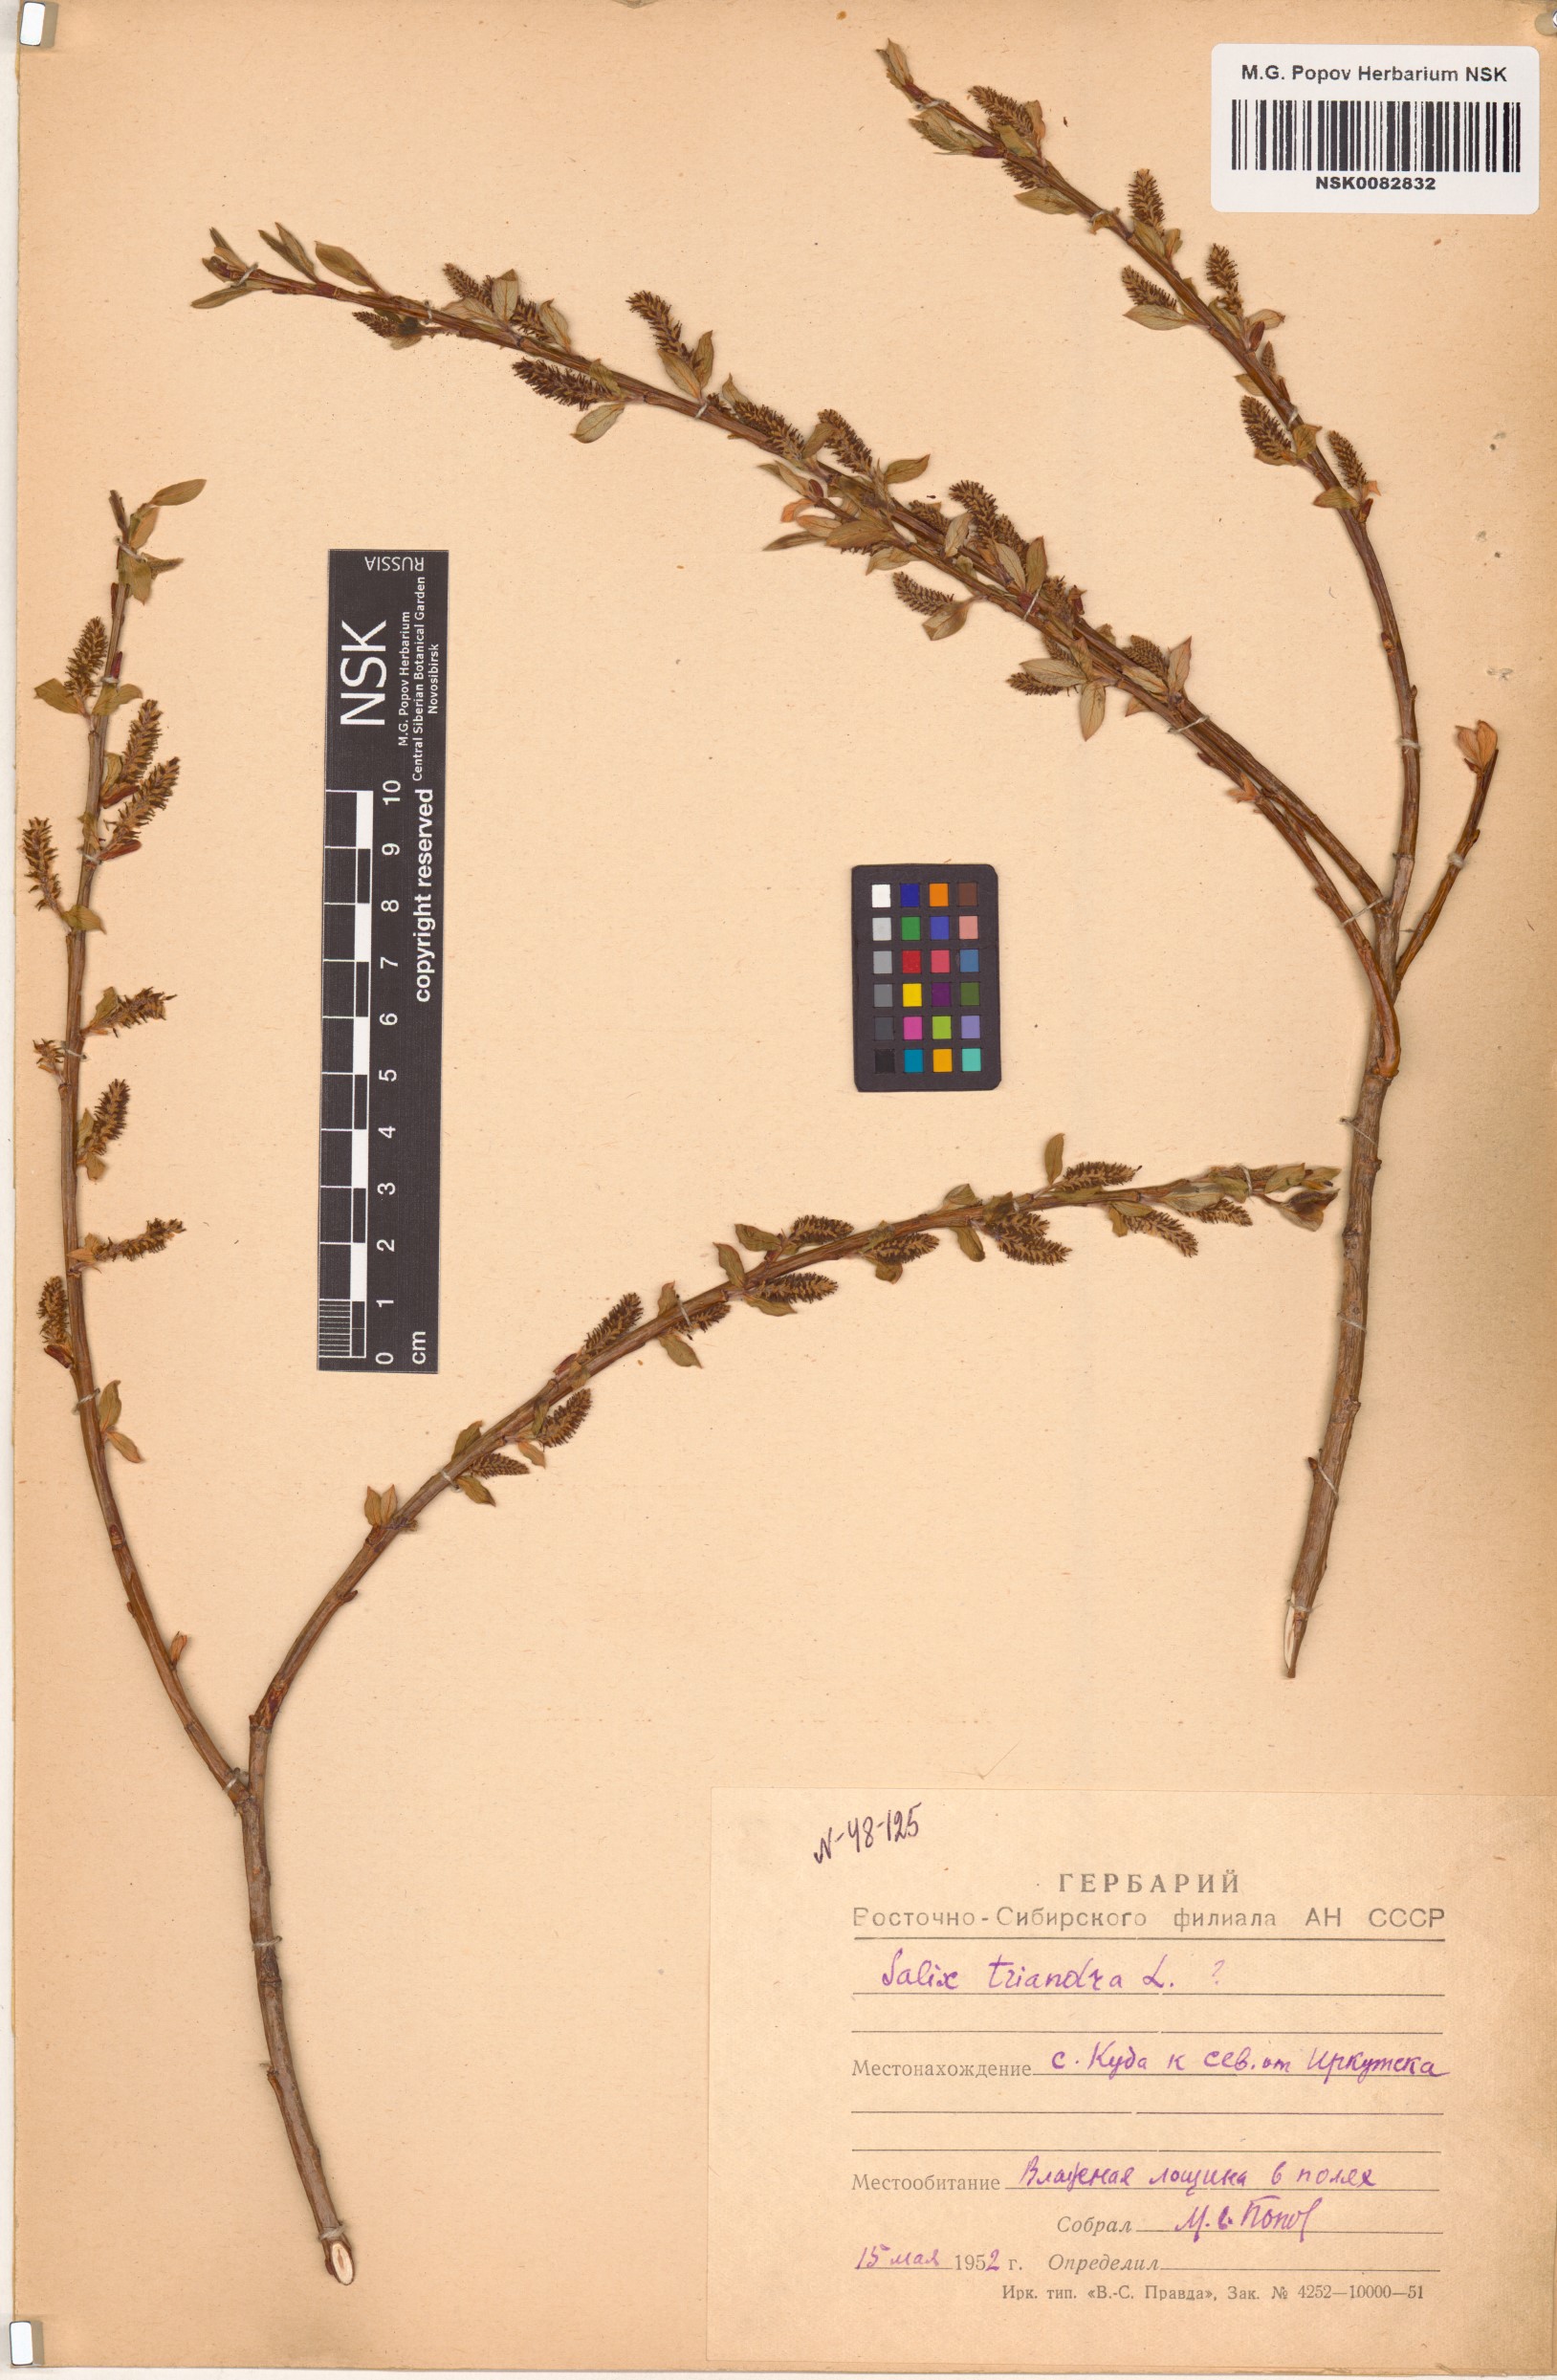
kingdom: Plantae
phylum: Tracheophyta
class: Magnoliopsida
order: Malpighiales
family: Salicaceae
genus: Salix
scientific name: Salix triandra
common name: Almond willow
